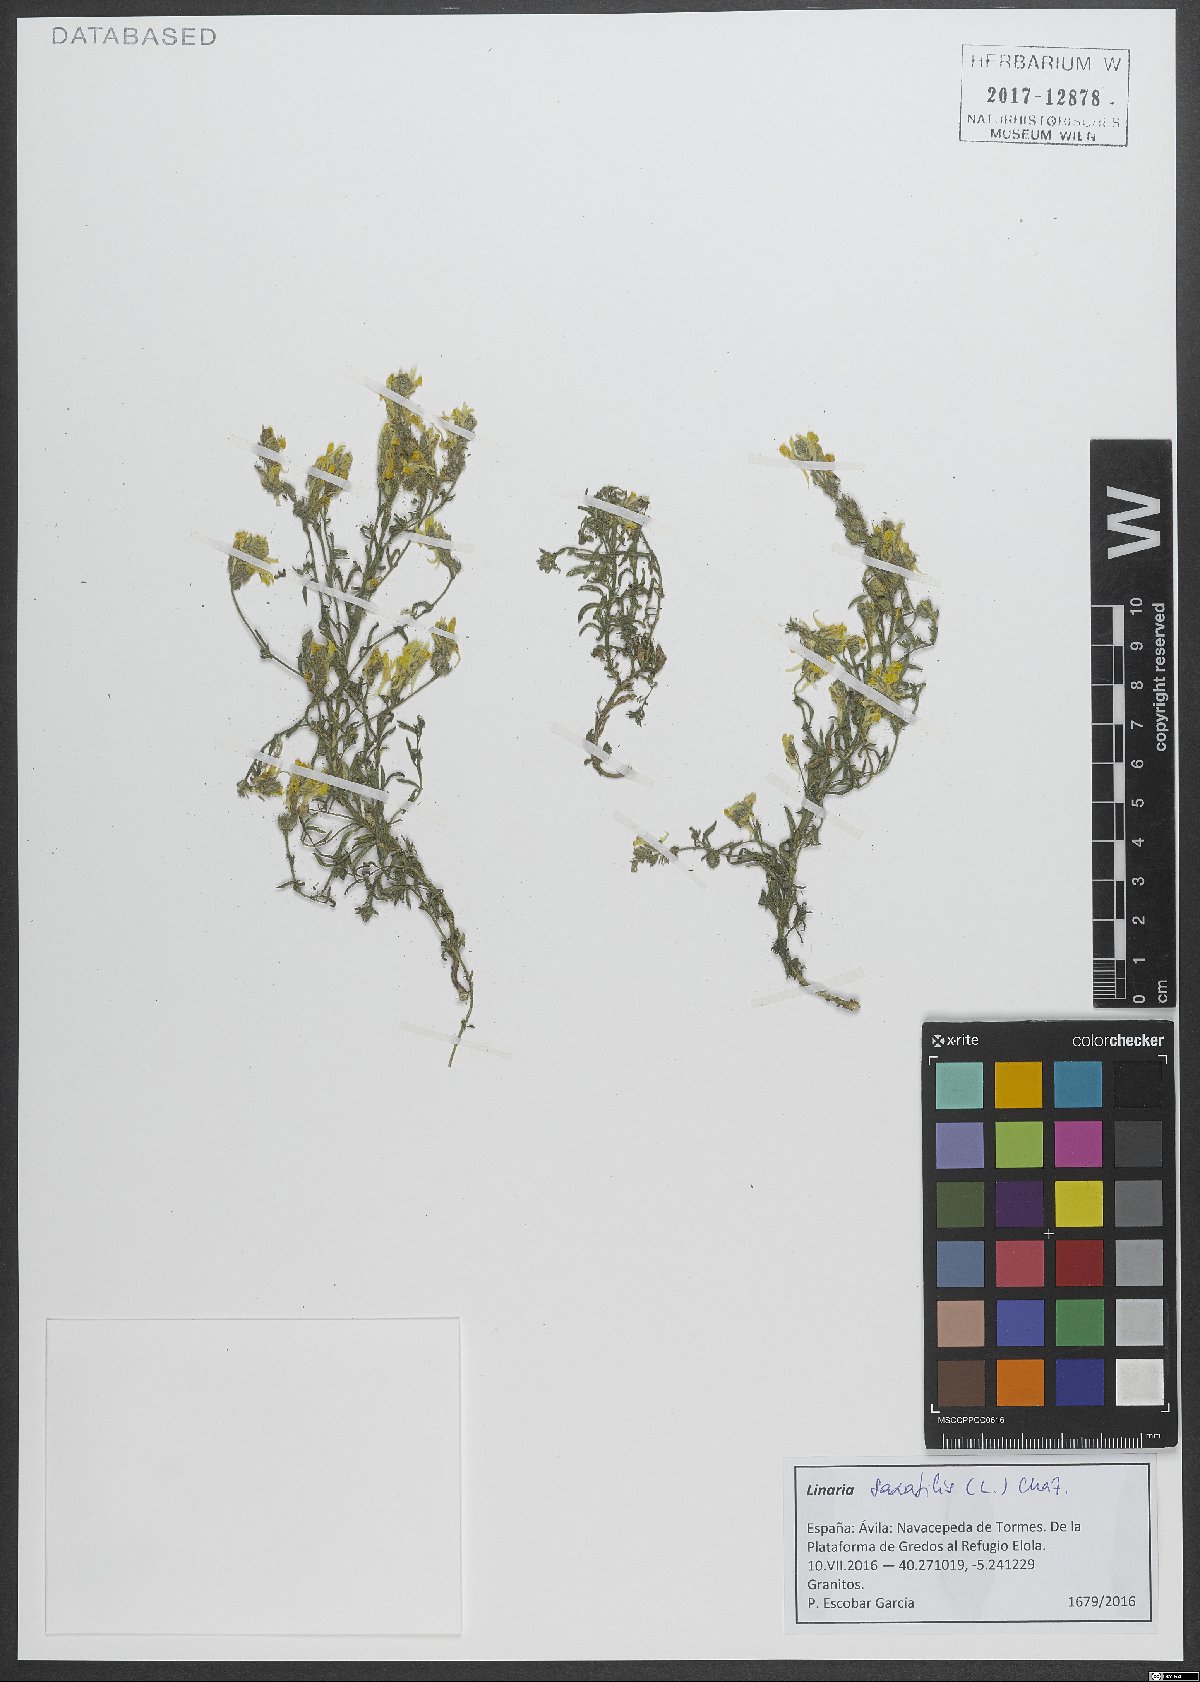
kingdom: Plantae
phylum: Tracheophyta
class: Magnoliopsida
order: Lamiales
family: Plantaginaceae
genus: Linaria
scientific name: Linaria saxatilis
